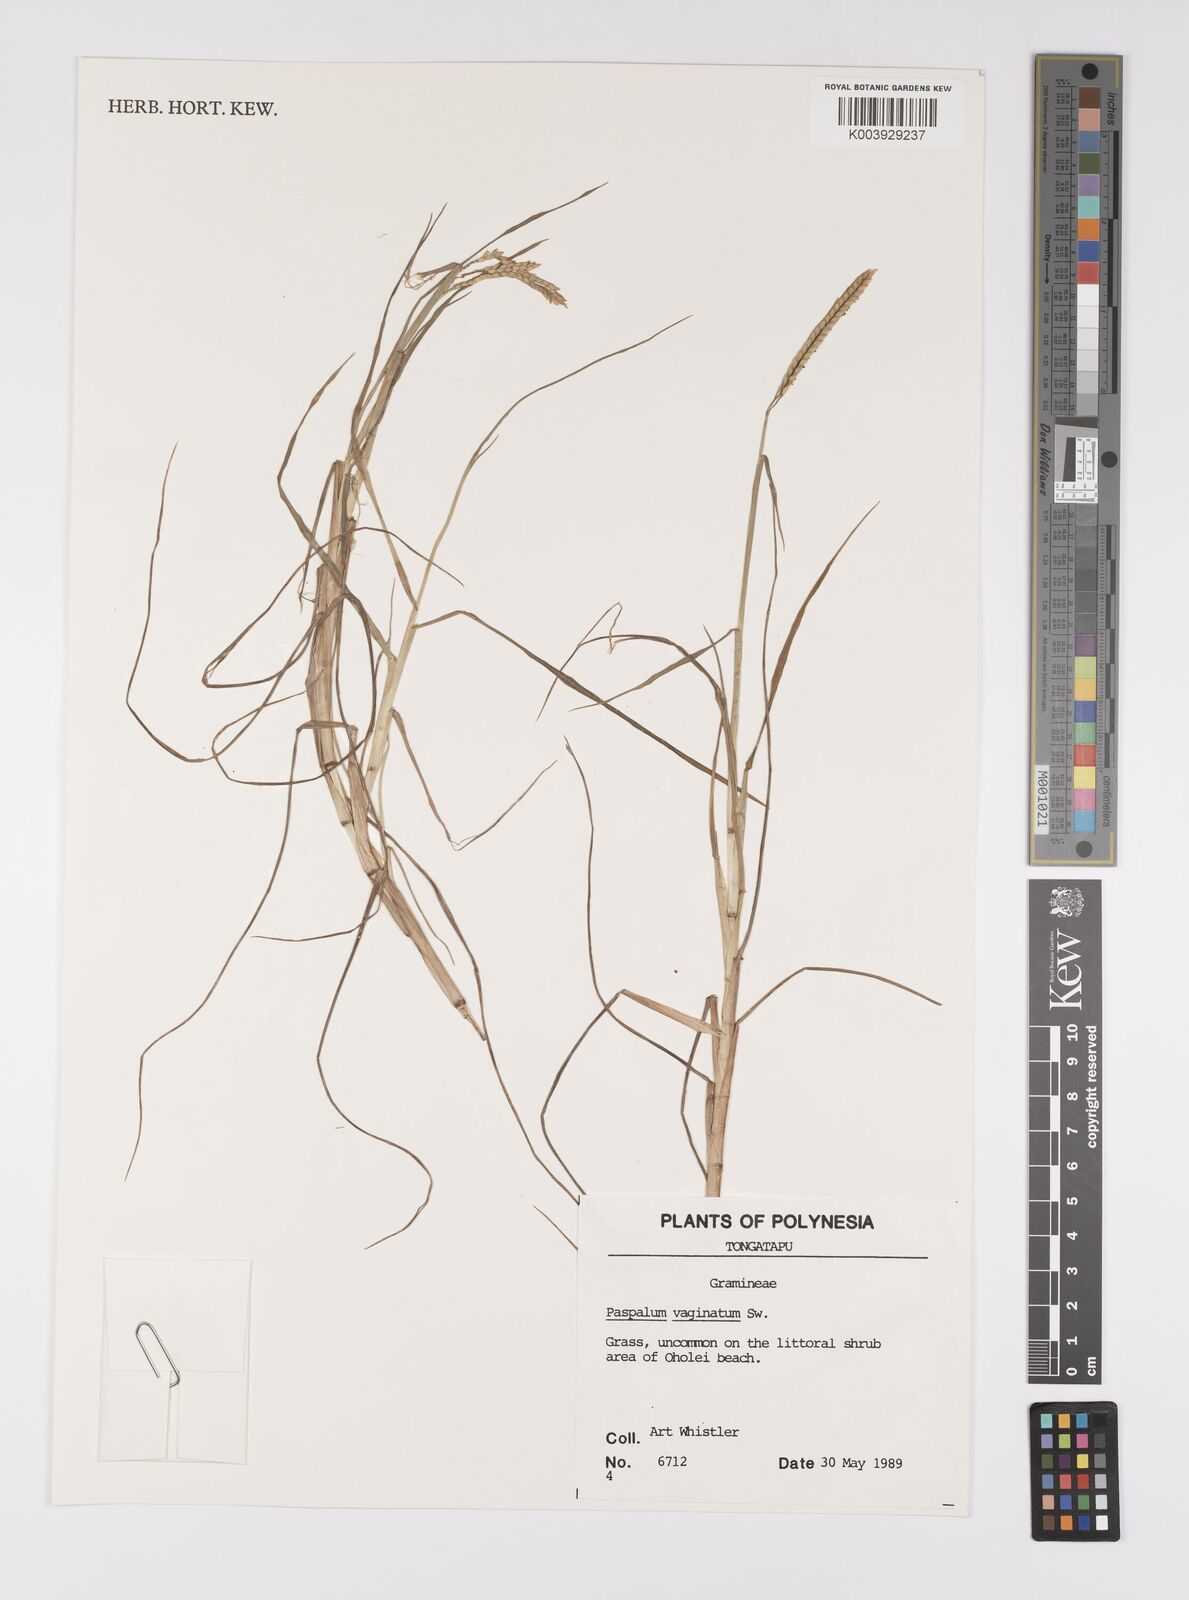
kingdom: Plantae
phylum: Tracheophyta
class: Liliopsida
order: Poales
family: Poaceae
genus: Paspalum
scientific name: Paspalum vaginatum
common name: Seashore paspalum
